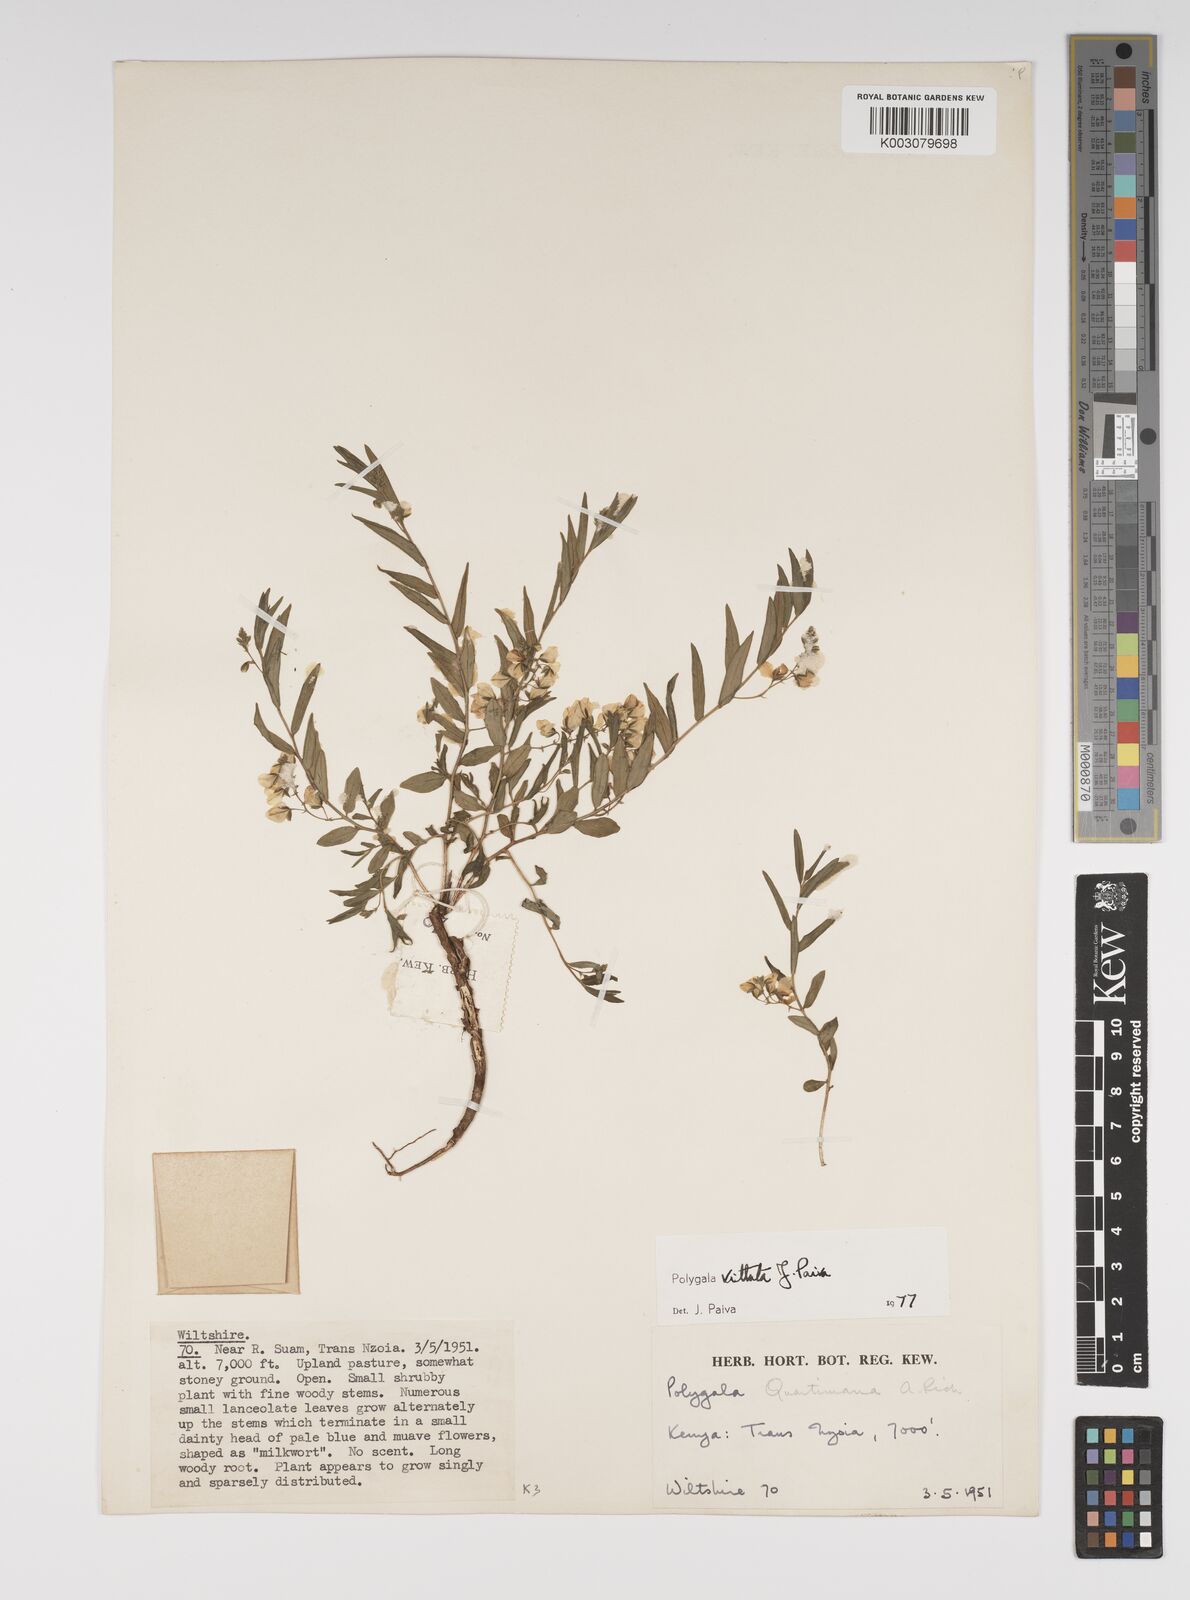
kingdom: Plantae
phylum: Tracheophyta
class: Magnoliopsida
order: Fabales
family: Polygalaceae
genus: Polygala
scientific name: Polygala vittata
